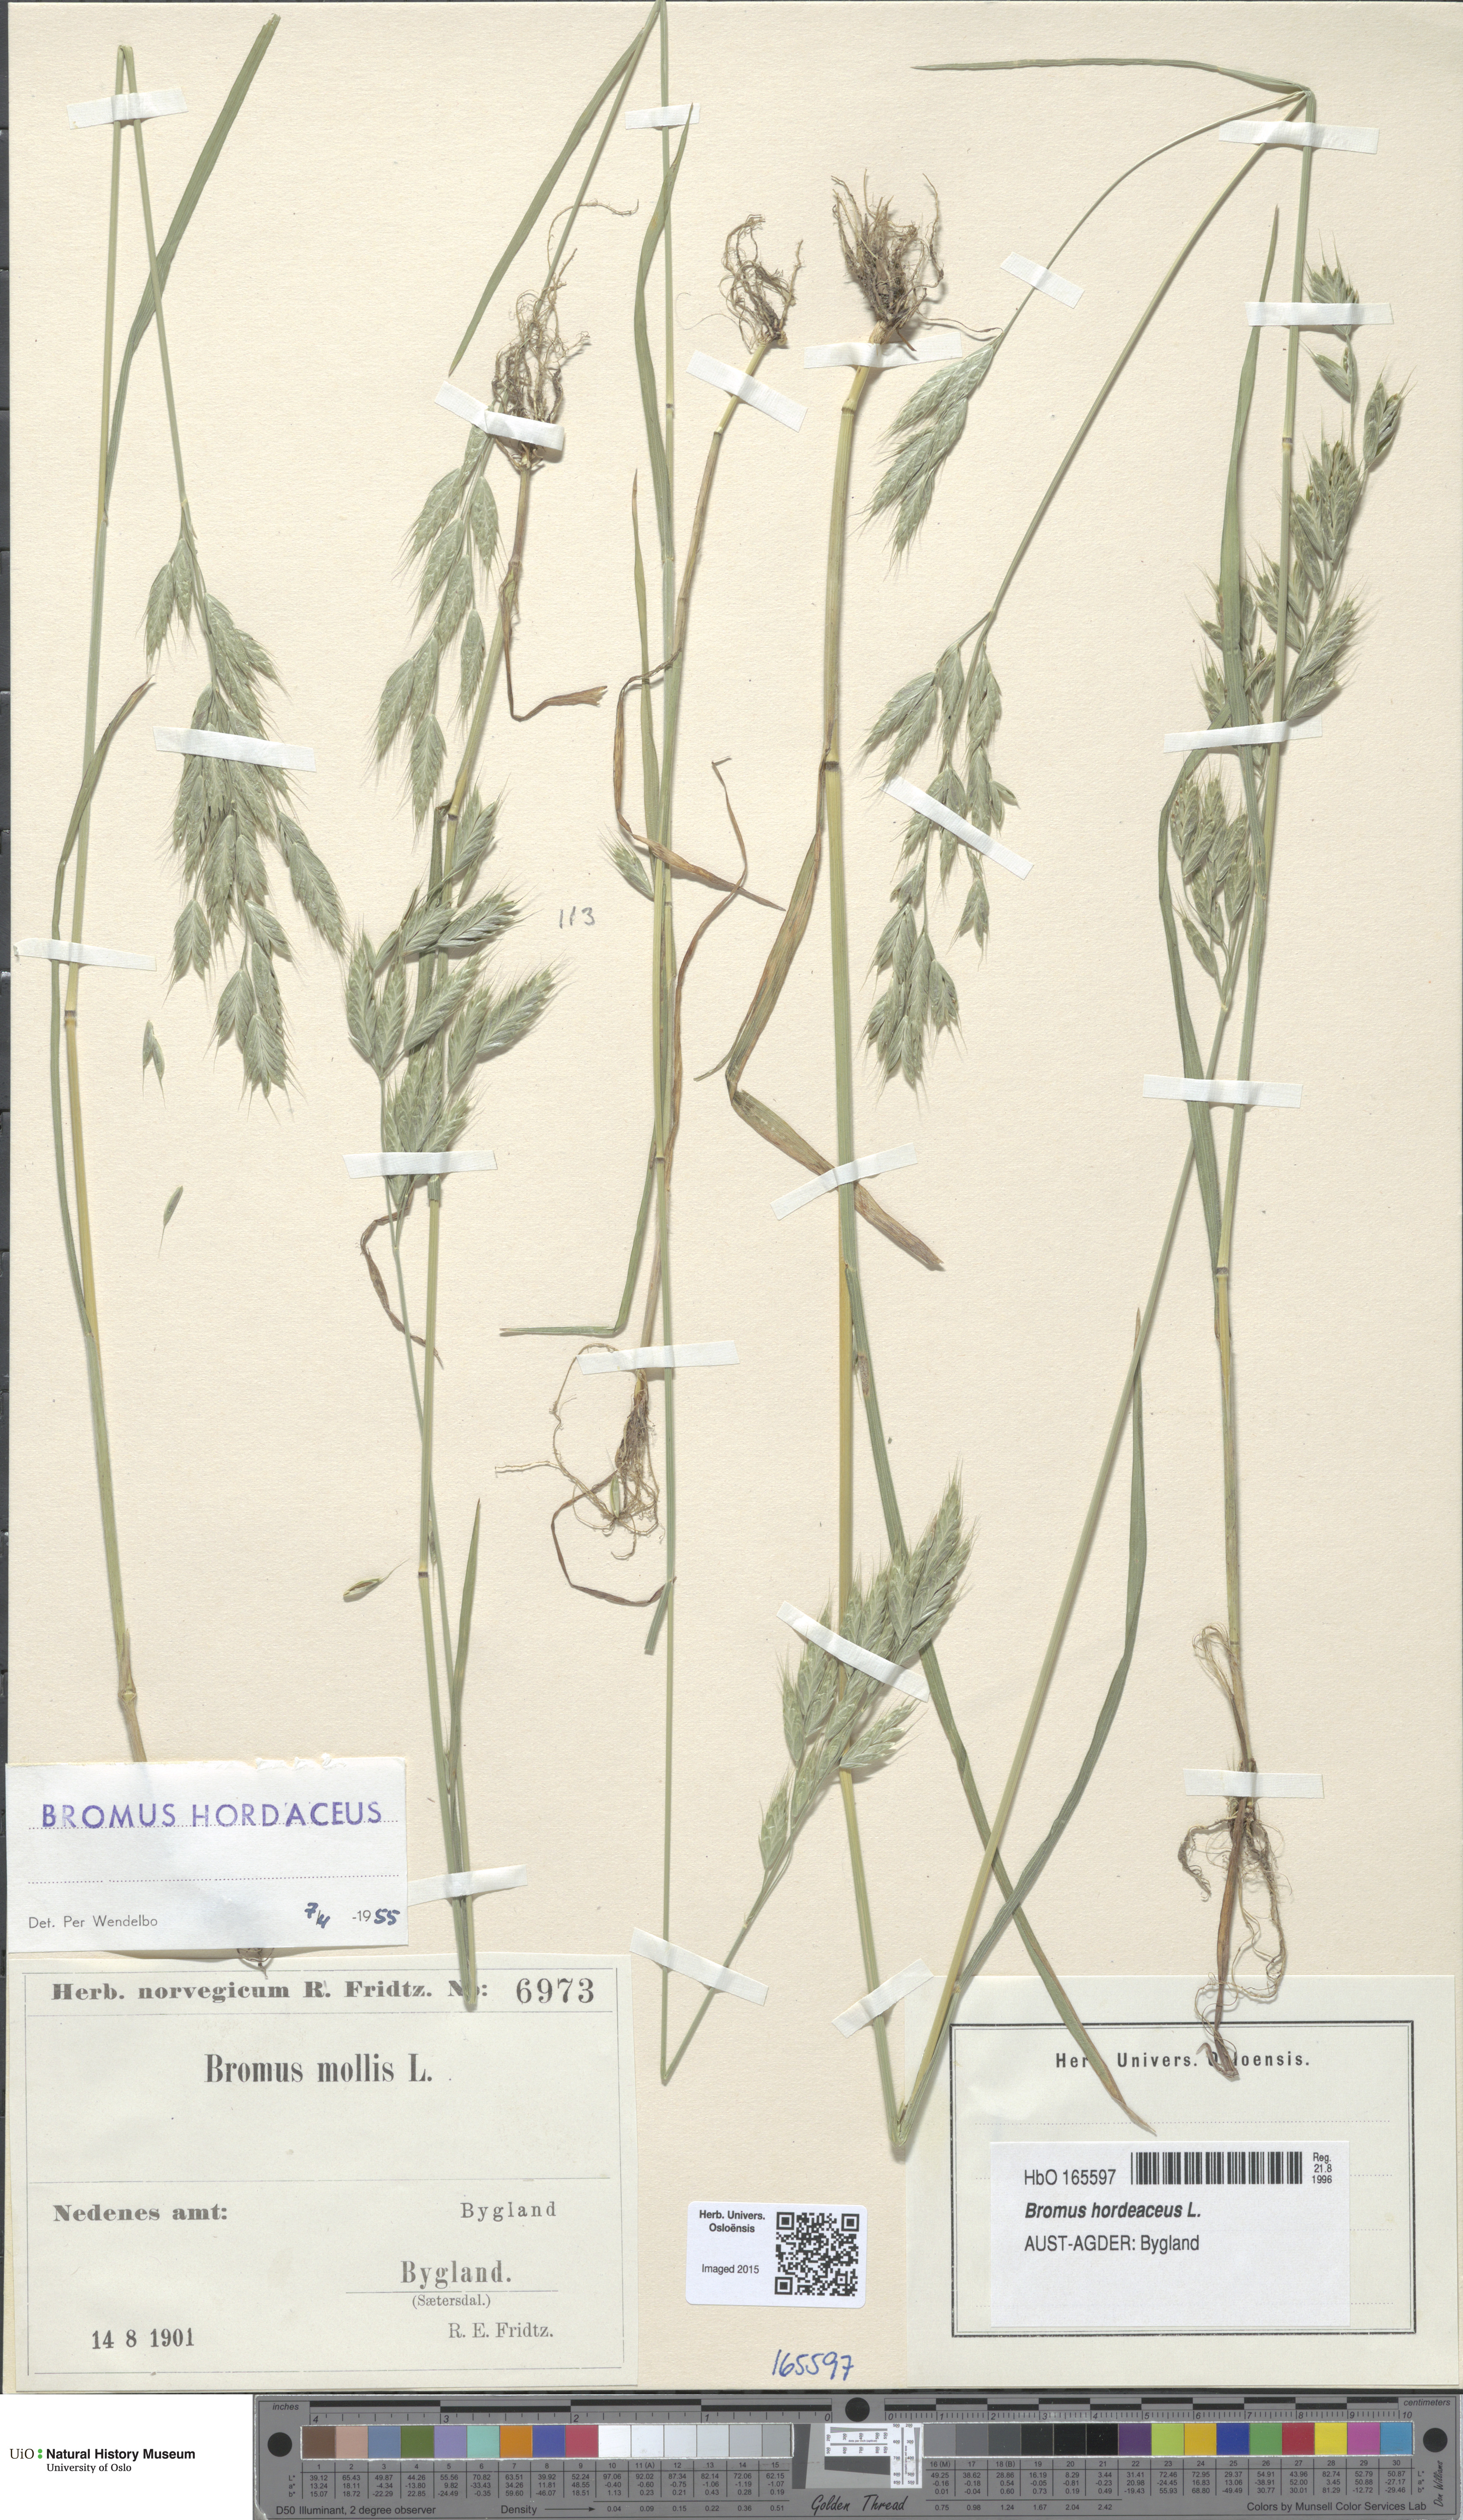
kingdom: Plantae
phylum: Tracheophyta
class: Liliopsida
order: Poales
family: Poaceae
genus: Bromus
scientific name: Bromus hordeaceus
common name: Soft brome
